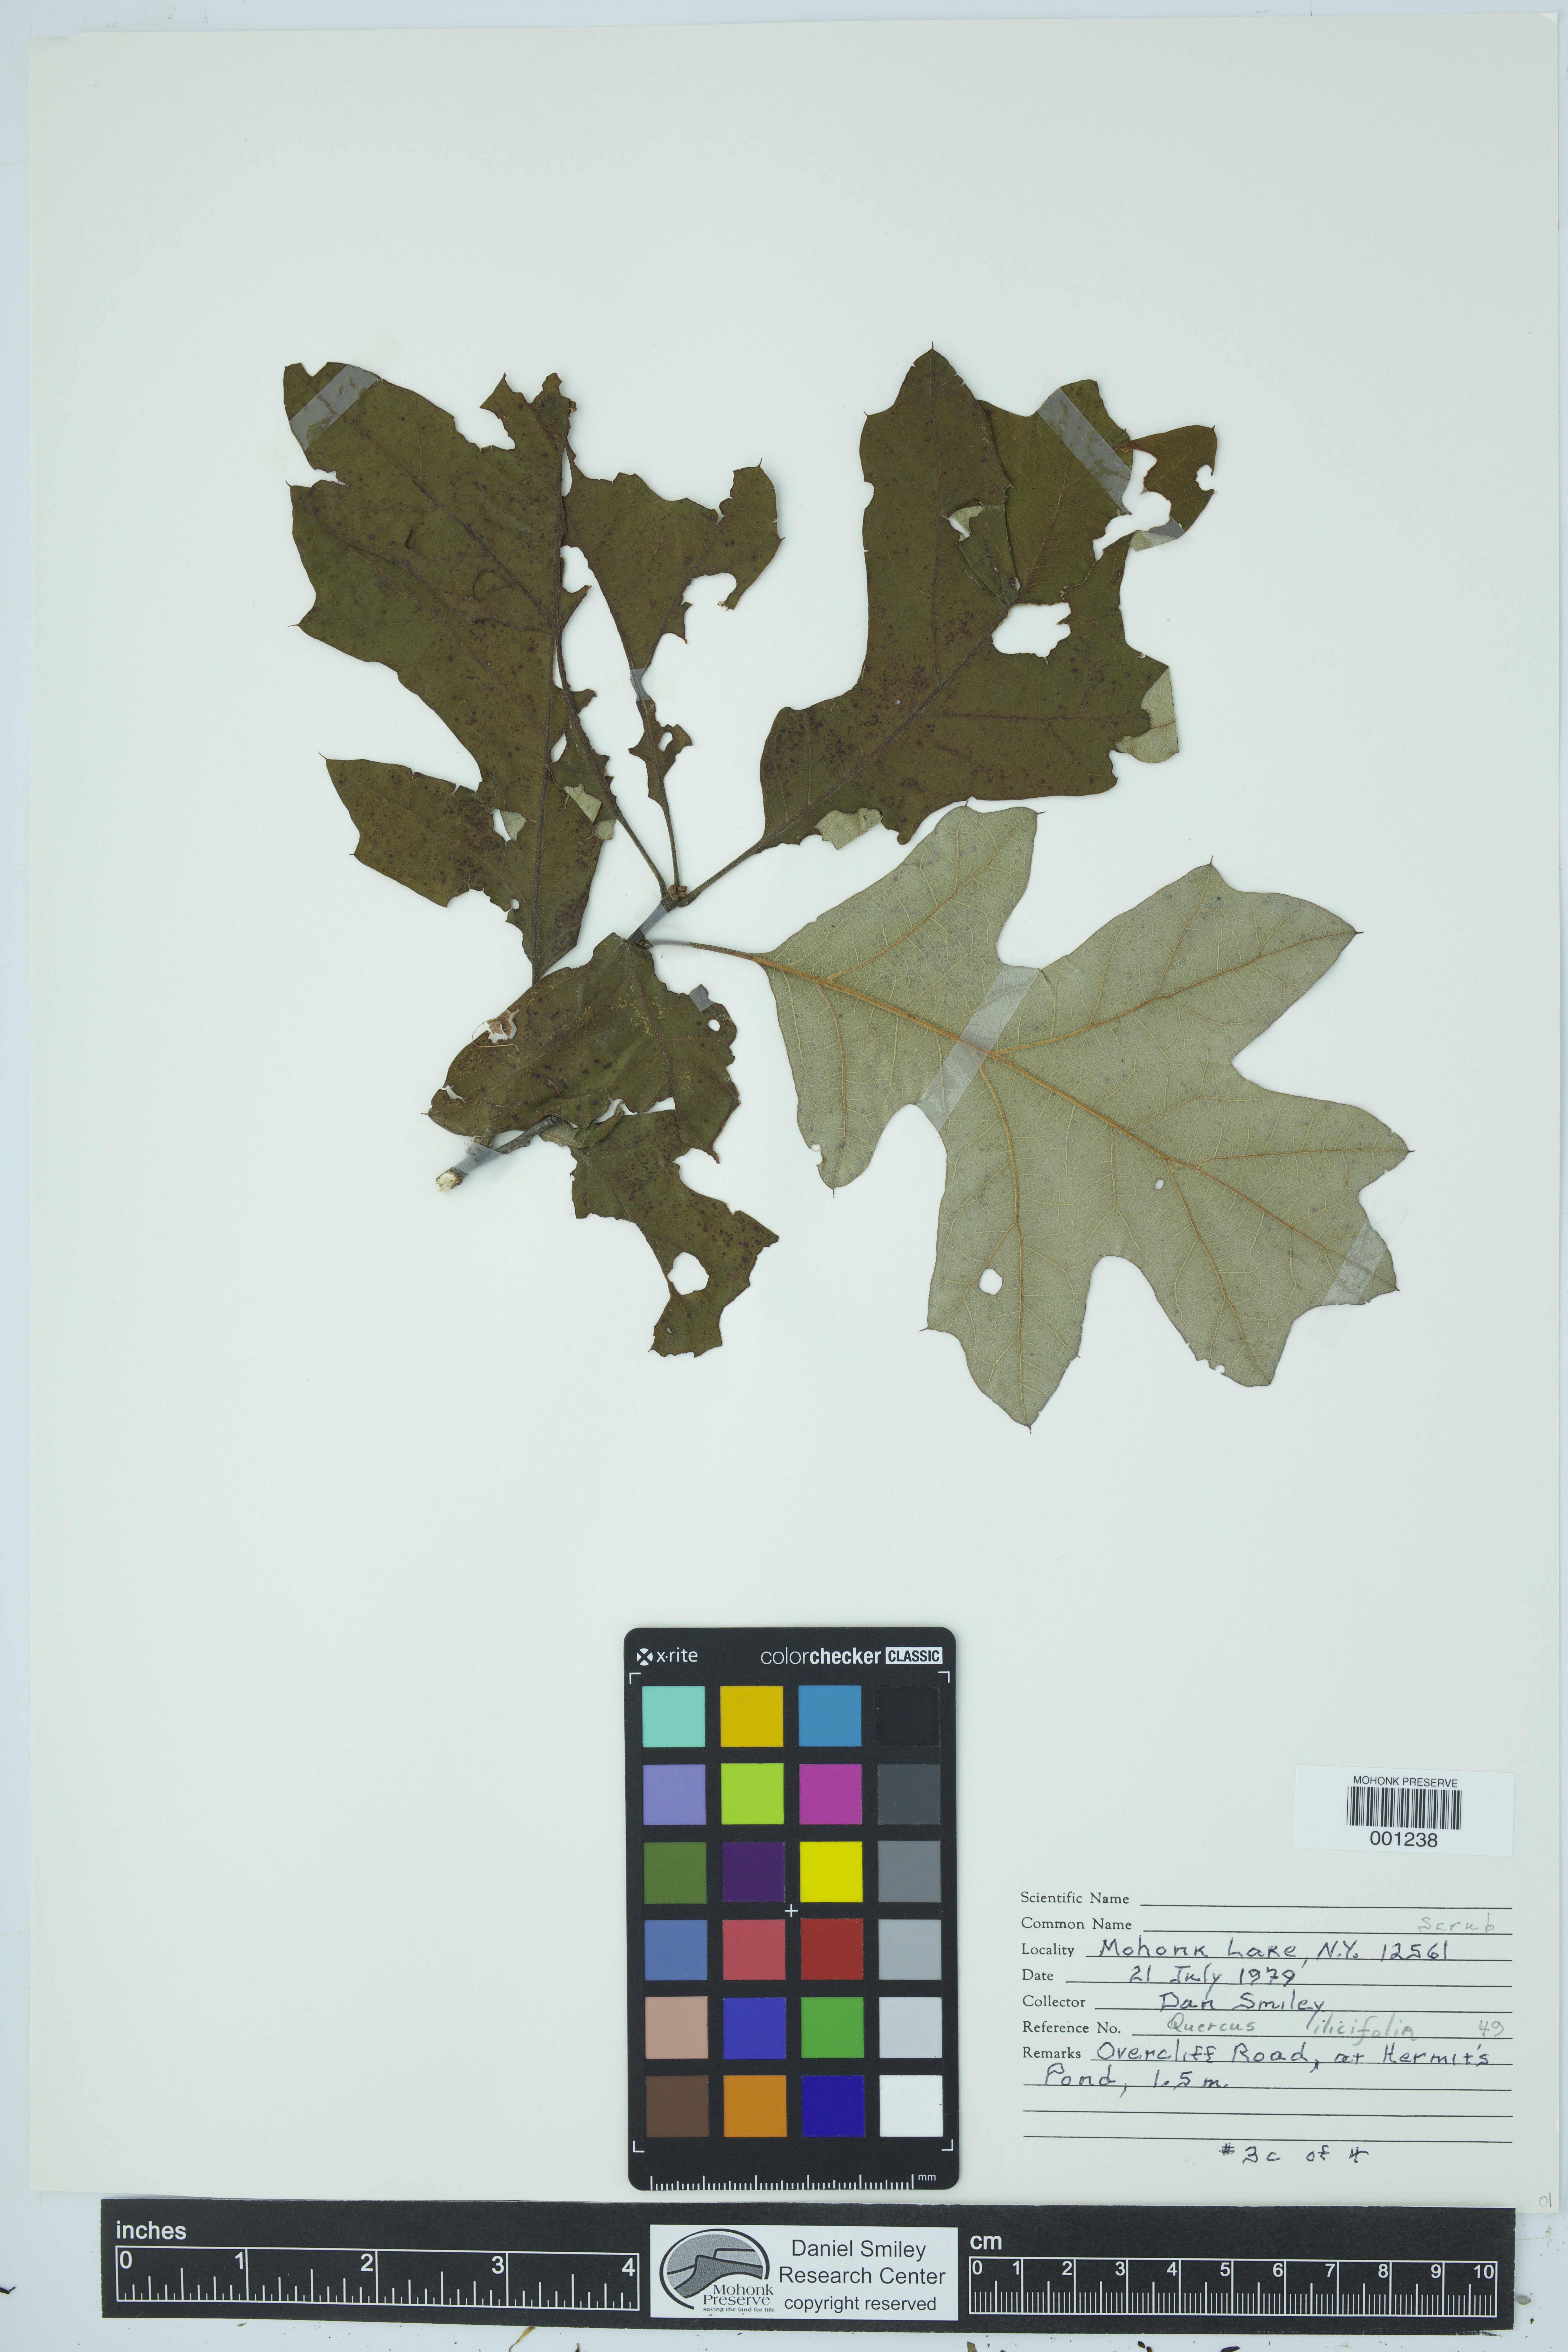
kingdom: Plantae
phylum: Tracheophyta
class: Magnoliopsida
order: Fagales
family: Fagaceae
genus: Quercus
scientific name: Quercus ilicifolia
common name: Bear oak
